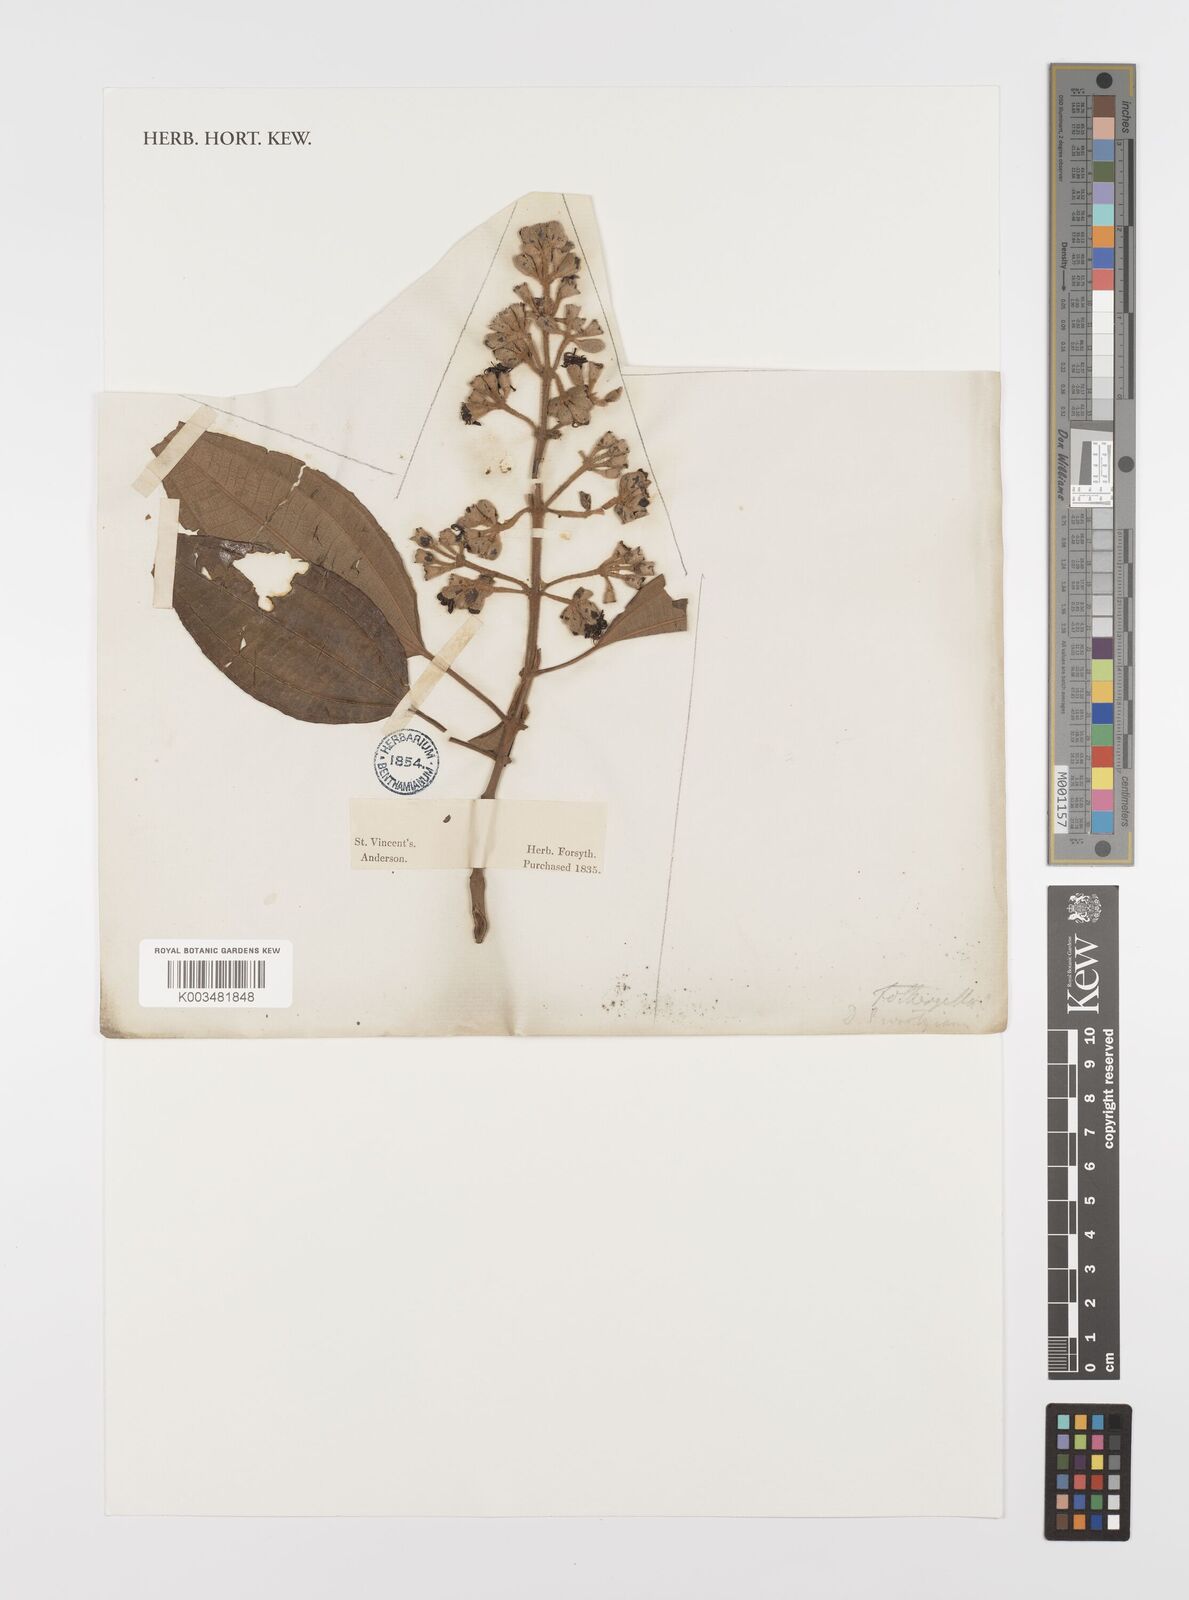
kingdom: Plantae
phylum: Tracheophyta
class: Magnoliopsida
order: Myrtales
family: Melastomataceae
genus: Miconia
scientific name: Miconia mirabilis
